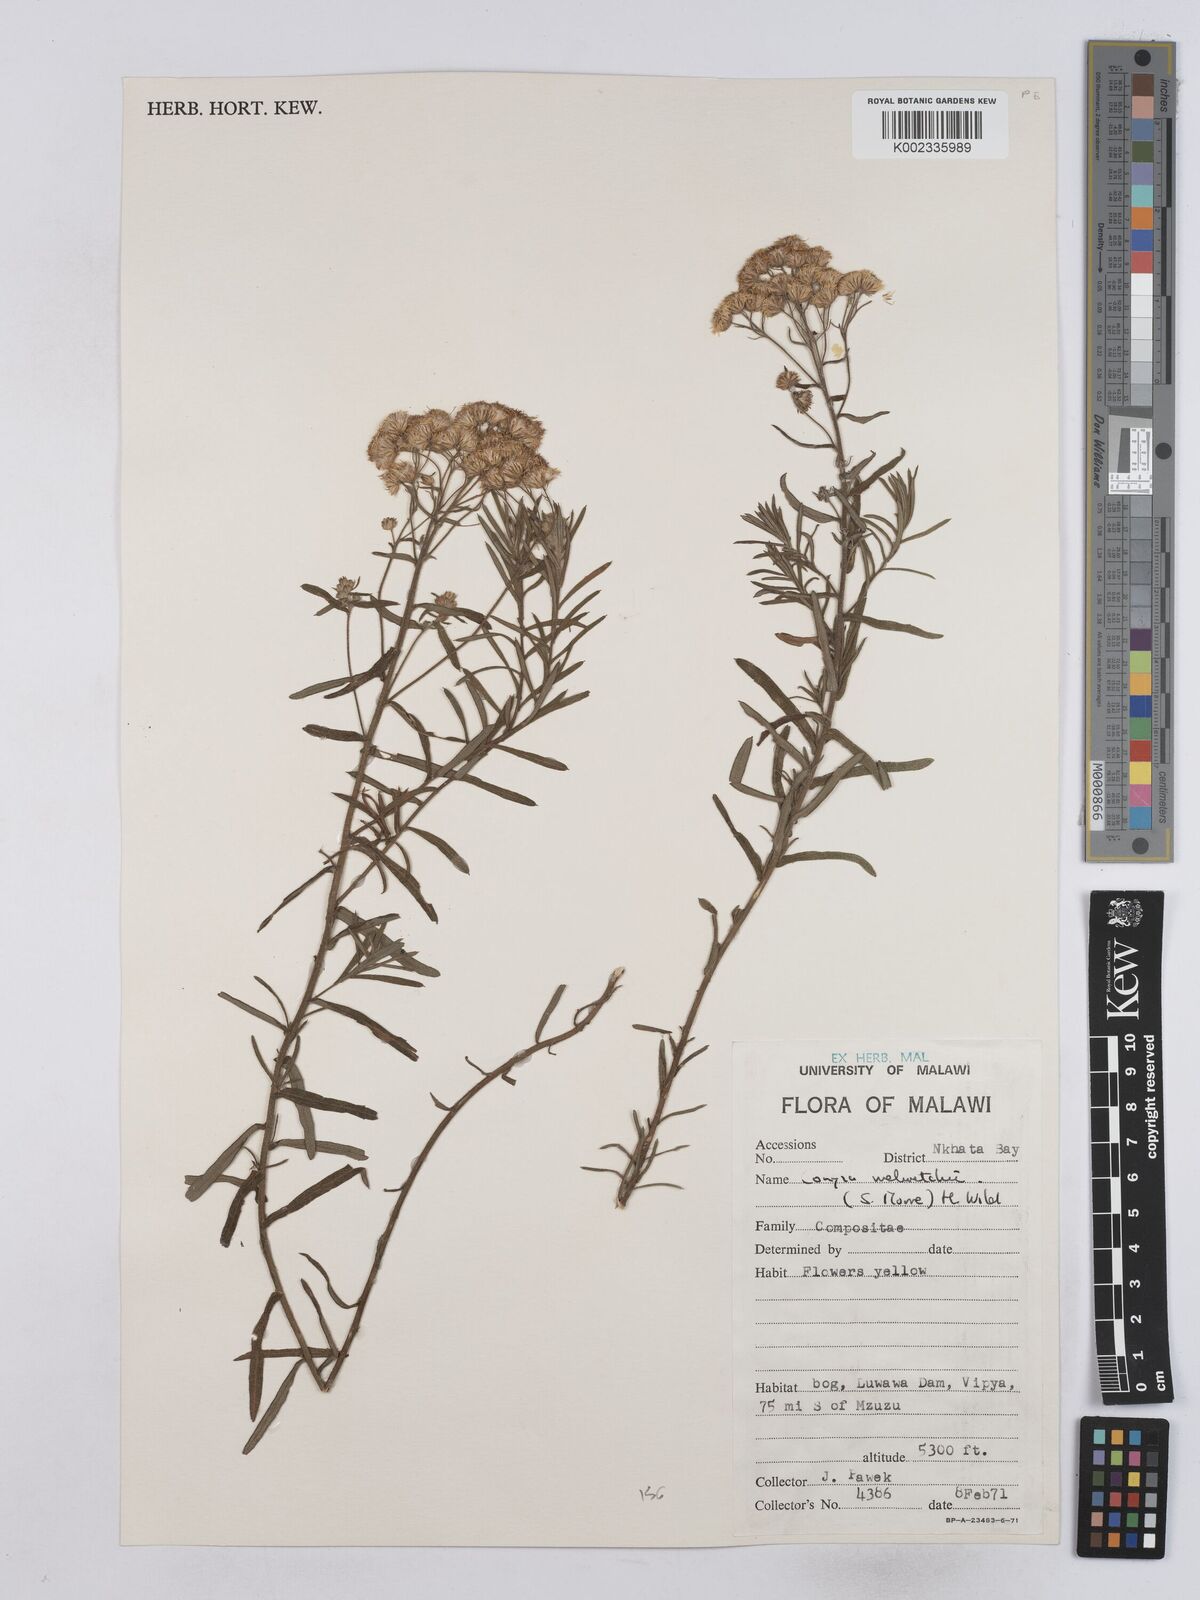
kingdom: Plantae
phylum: Tracheophyta
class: Magnoliopsida
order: Asterales
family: Asteraceae
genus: Nidorella
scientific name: Nidorella welwitschii
